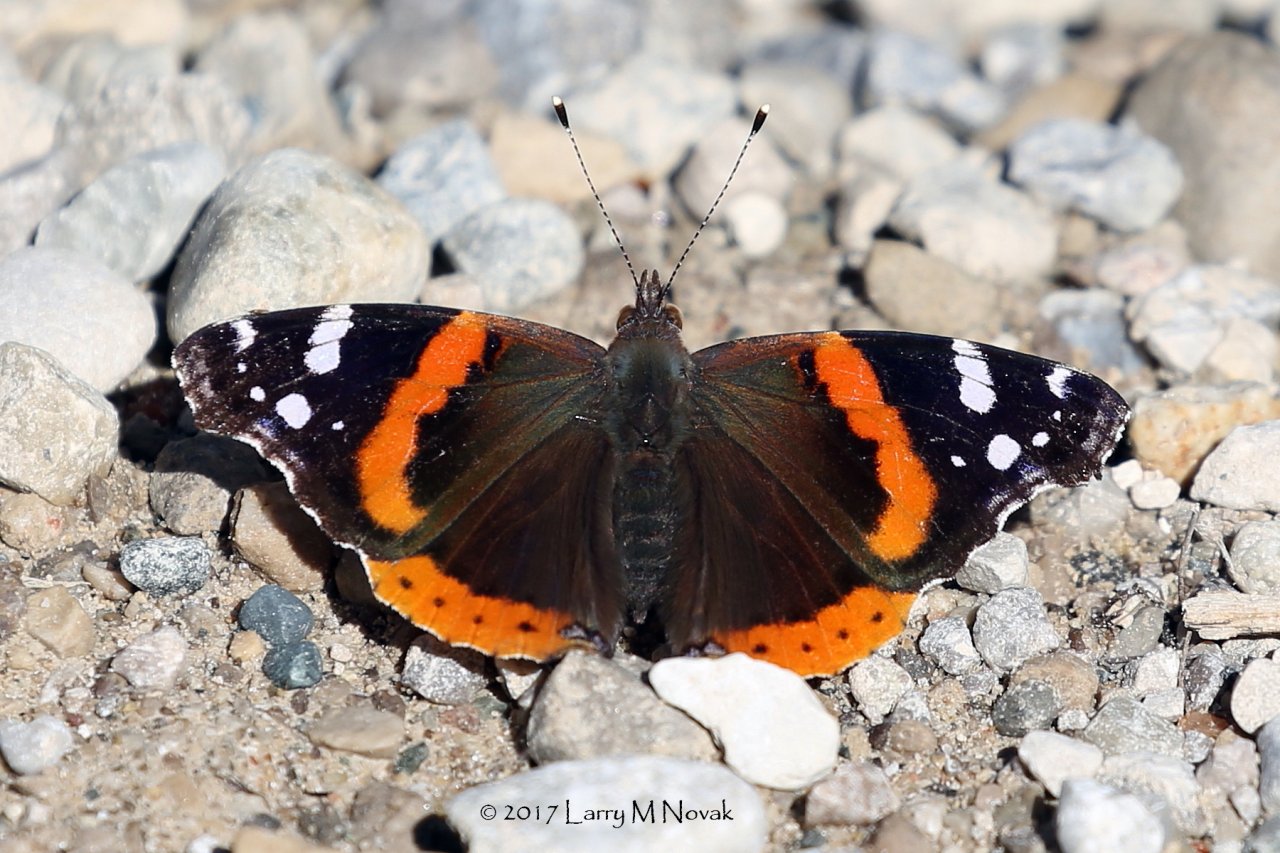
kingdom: Animalia
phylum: Arthropoda
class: Insecta
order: Lepidoptera
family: Nymphalidae
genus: Vanessa
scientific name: Vanessa atalanta
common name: Red Admiral
